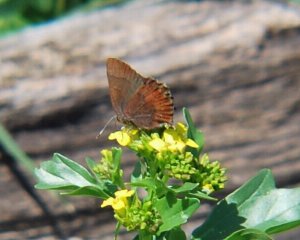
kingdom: Animalia
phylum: Arthropoda
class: Insecta
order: Lepidoptera
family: Lycaenidae
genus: Incisalia
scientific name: Incisalia irioides
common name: Brown Elfin
